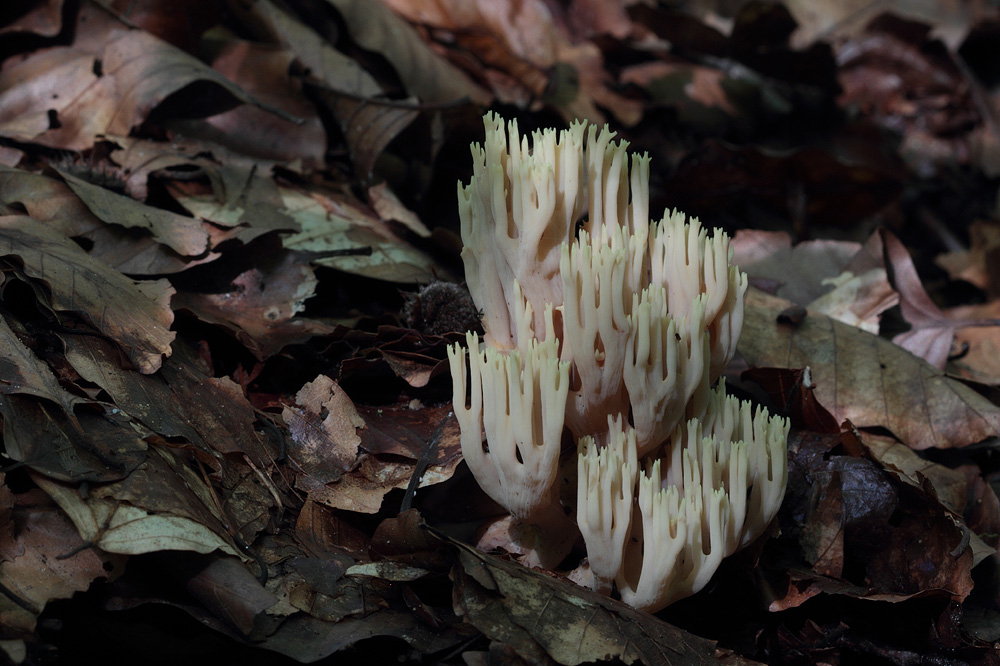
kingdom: Fungi
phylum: Basidiomycota
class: Agaricomycetes
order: Gomphales
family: Gomphaceae
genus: Ramaria
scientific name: Ramaria stricta
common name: rank koralsvamp
